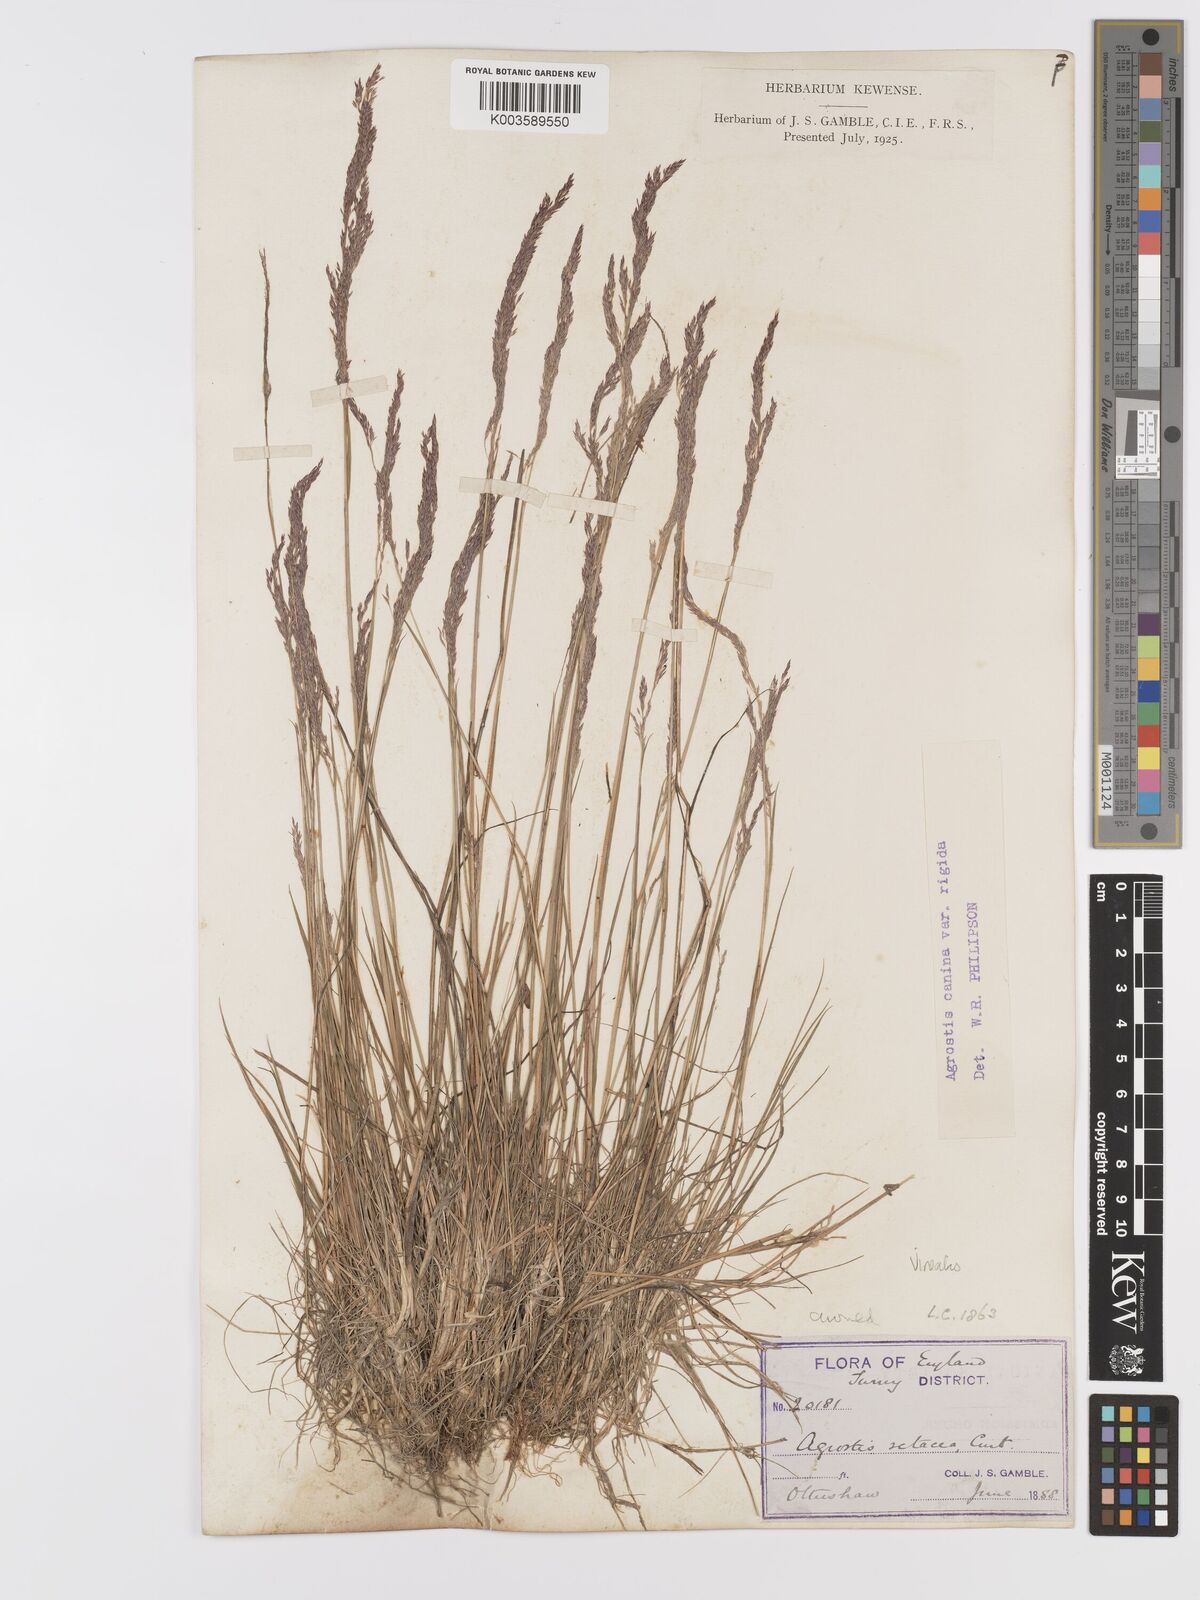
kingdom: Plantae
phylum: Tracheophyta
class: Liliopsida
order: Poales
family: Poaceae
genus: Agrostis
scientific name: Agrostis
